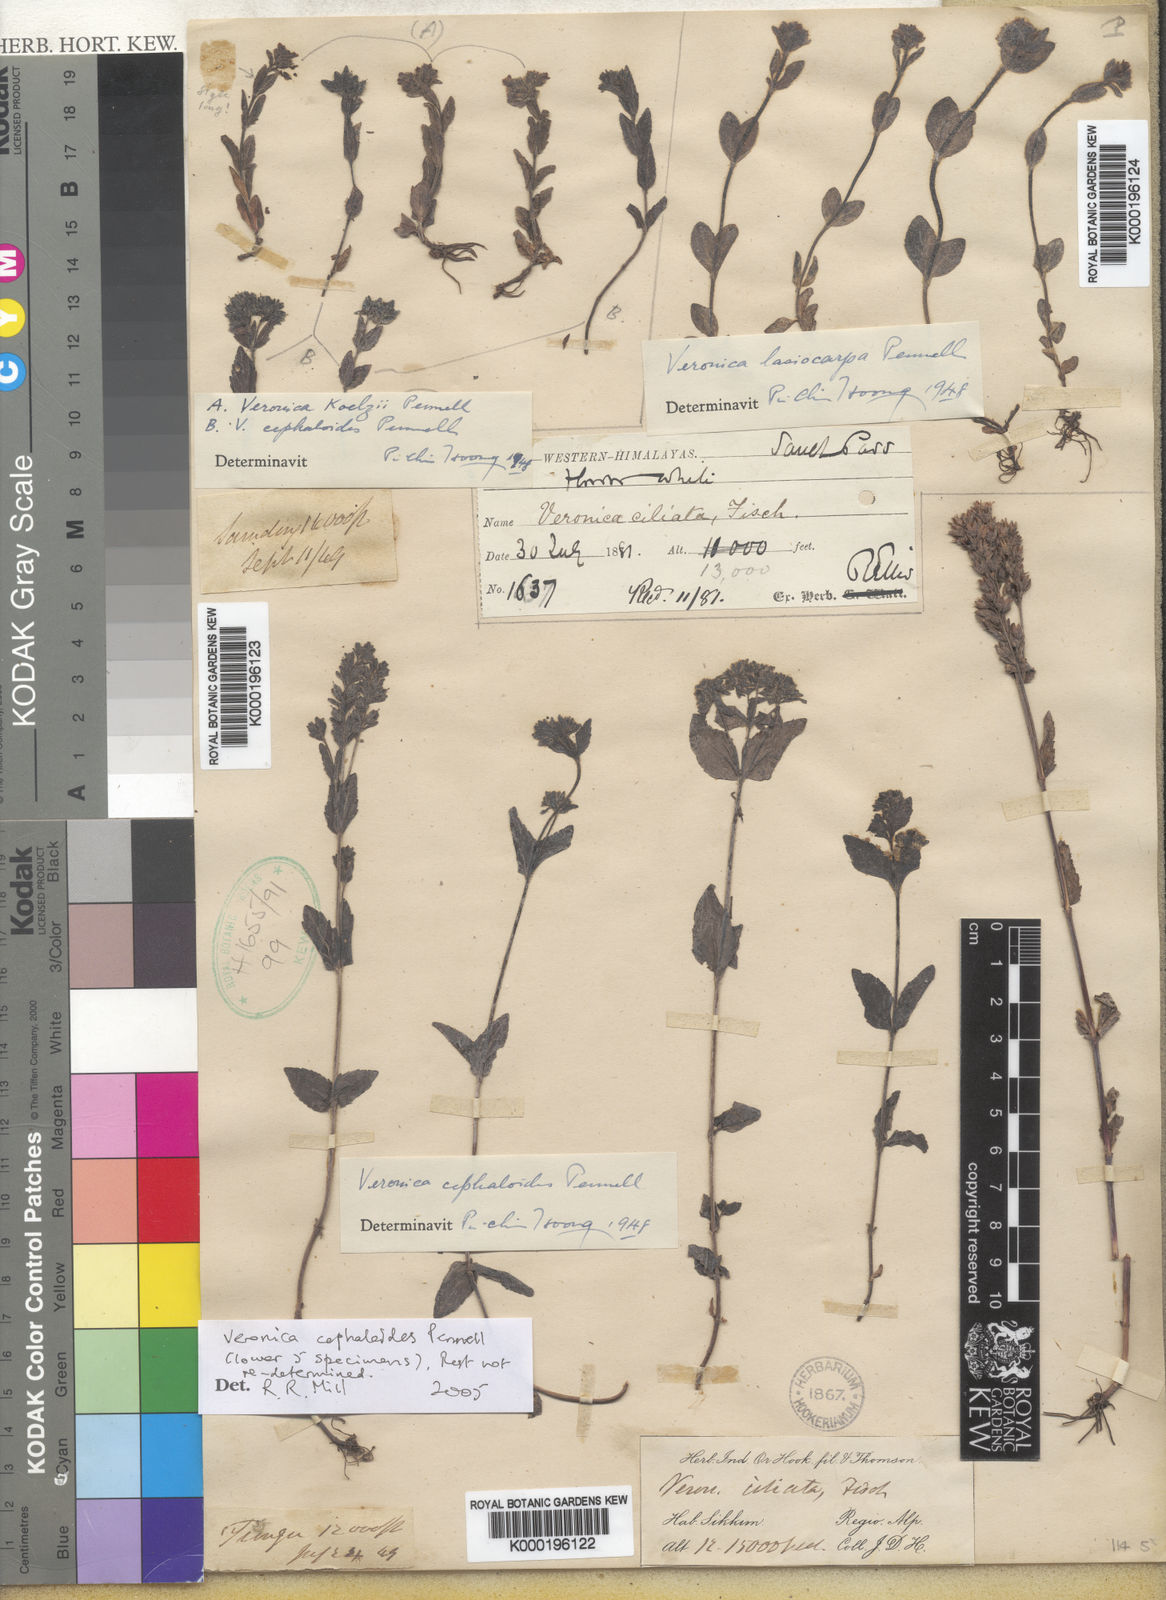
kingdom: Plantae
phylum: Tracheophyta
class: Magnoliopsida
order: Lamiales
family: Plantaginaceae
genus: Veronica
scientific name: Veronica alpina
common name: Alpine speedwell
